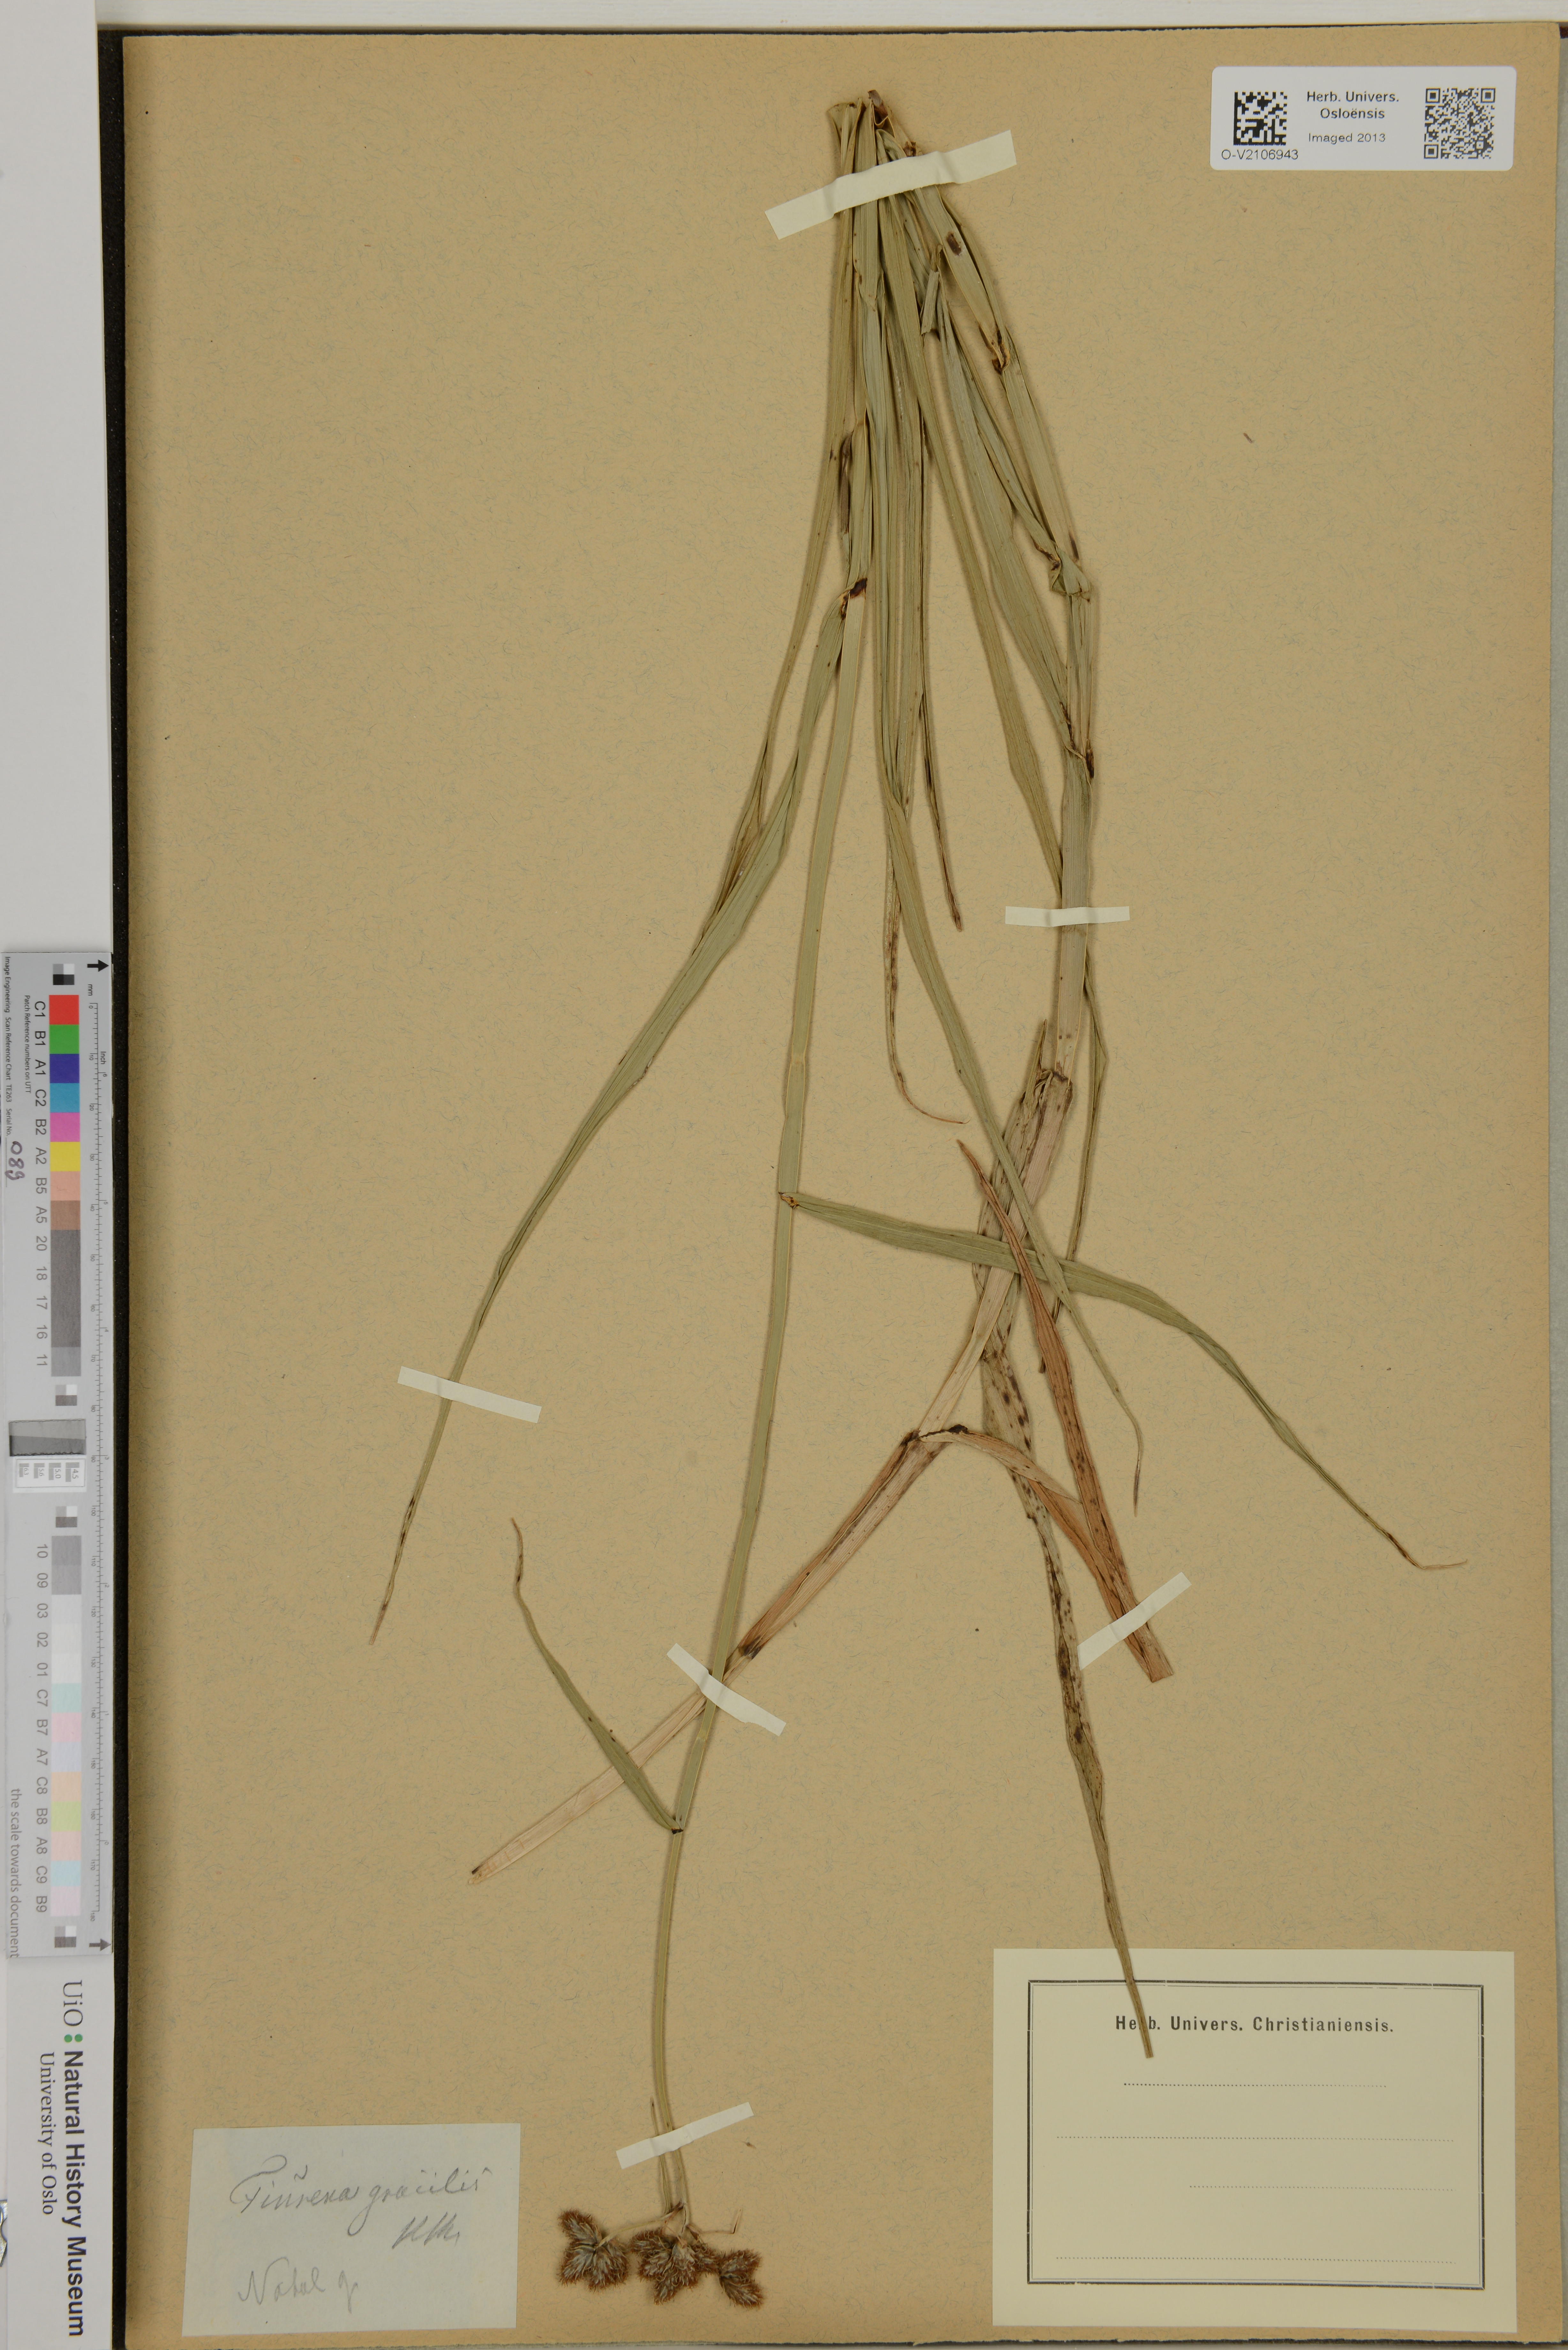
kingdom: Plantae
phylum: Tracheophyta
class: Liliopsida
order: Poales
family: Cyperaceae
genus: Fuirena
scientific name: Fuirena coerulescens
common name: Blue umbrella-sedge
